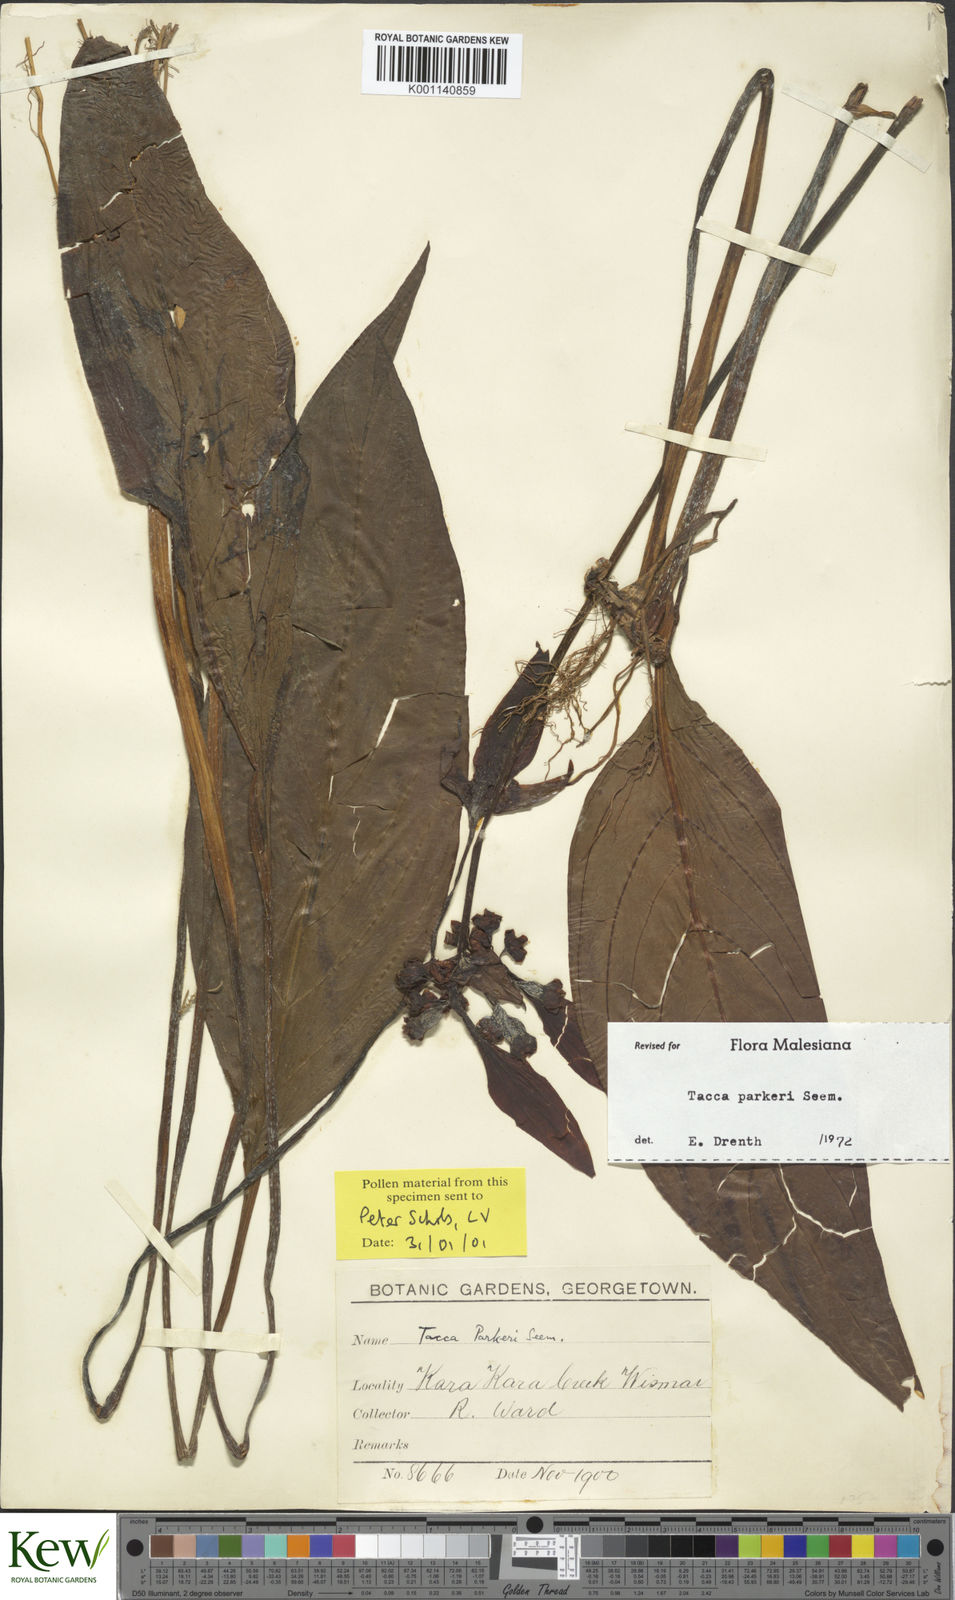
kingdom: Plantae
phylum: Tracheophyta
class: Liliopsida
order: Dioscoreales
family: Dioscoreaceae
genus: Tacca
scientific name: Tacca parkeri
